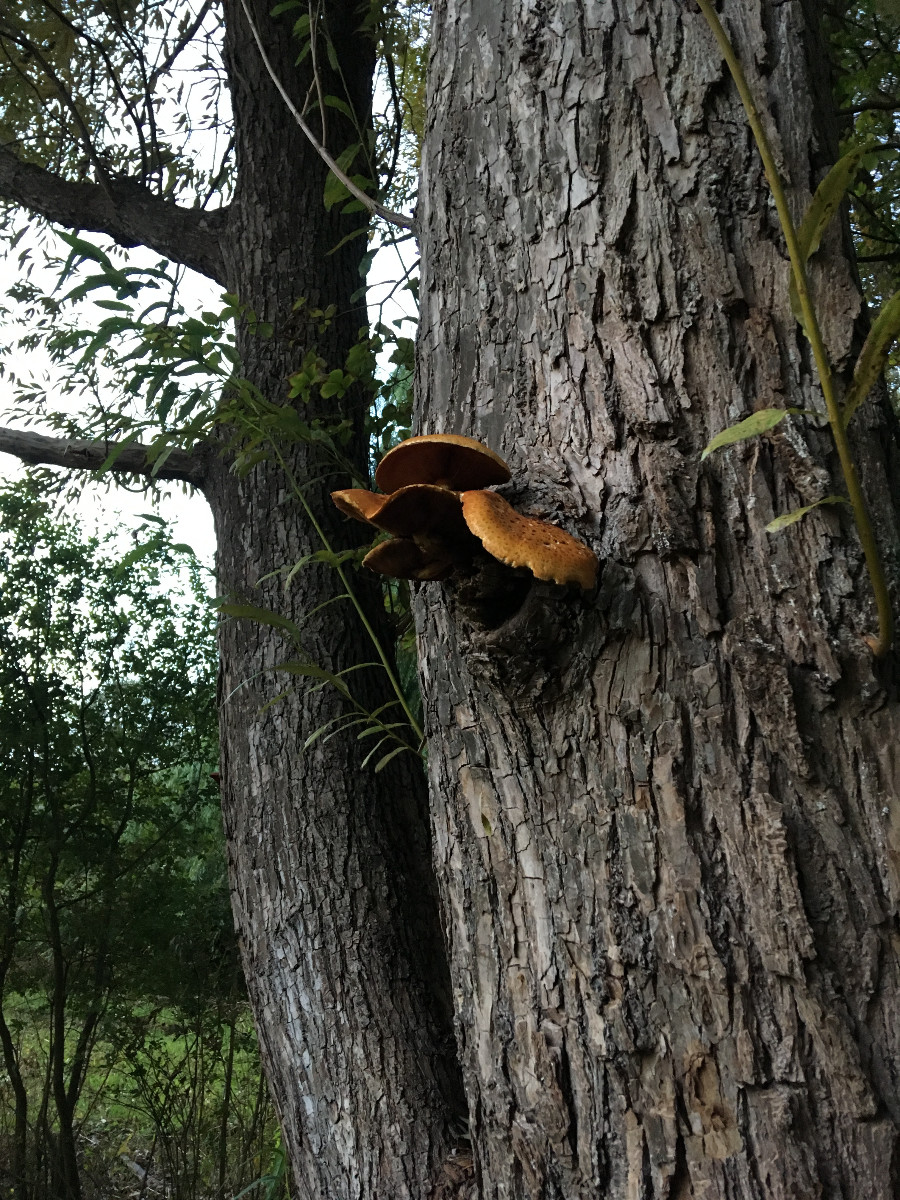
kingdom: Fungi
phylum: Basidiomycota
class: Agaricomycetes
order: Agaricales
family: Strophariaceae
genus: Pholiota
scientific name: Pholiota aurivella
